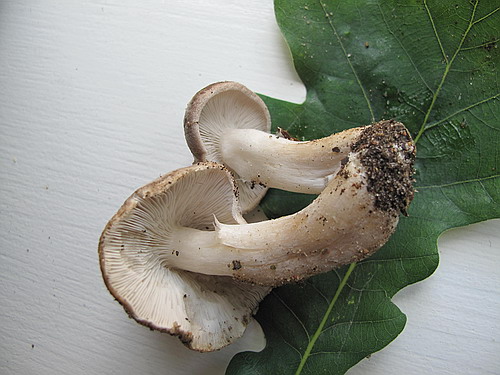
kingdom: Fungi
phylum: Basidiomycota
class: Agaricomycetes
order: Agaricales
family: Tricholomataceae
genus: Tricholoma
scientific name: Tricholoma scalpturatum
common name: gulplettet ridderhat
